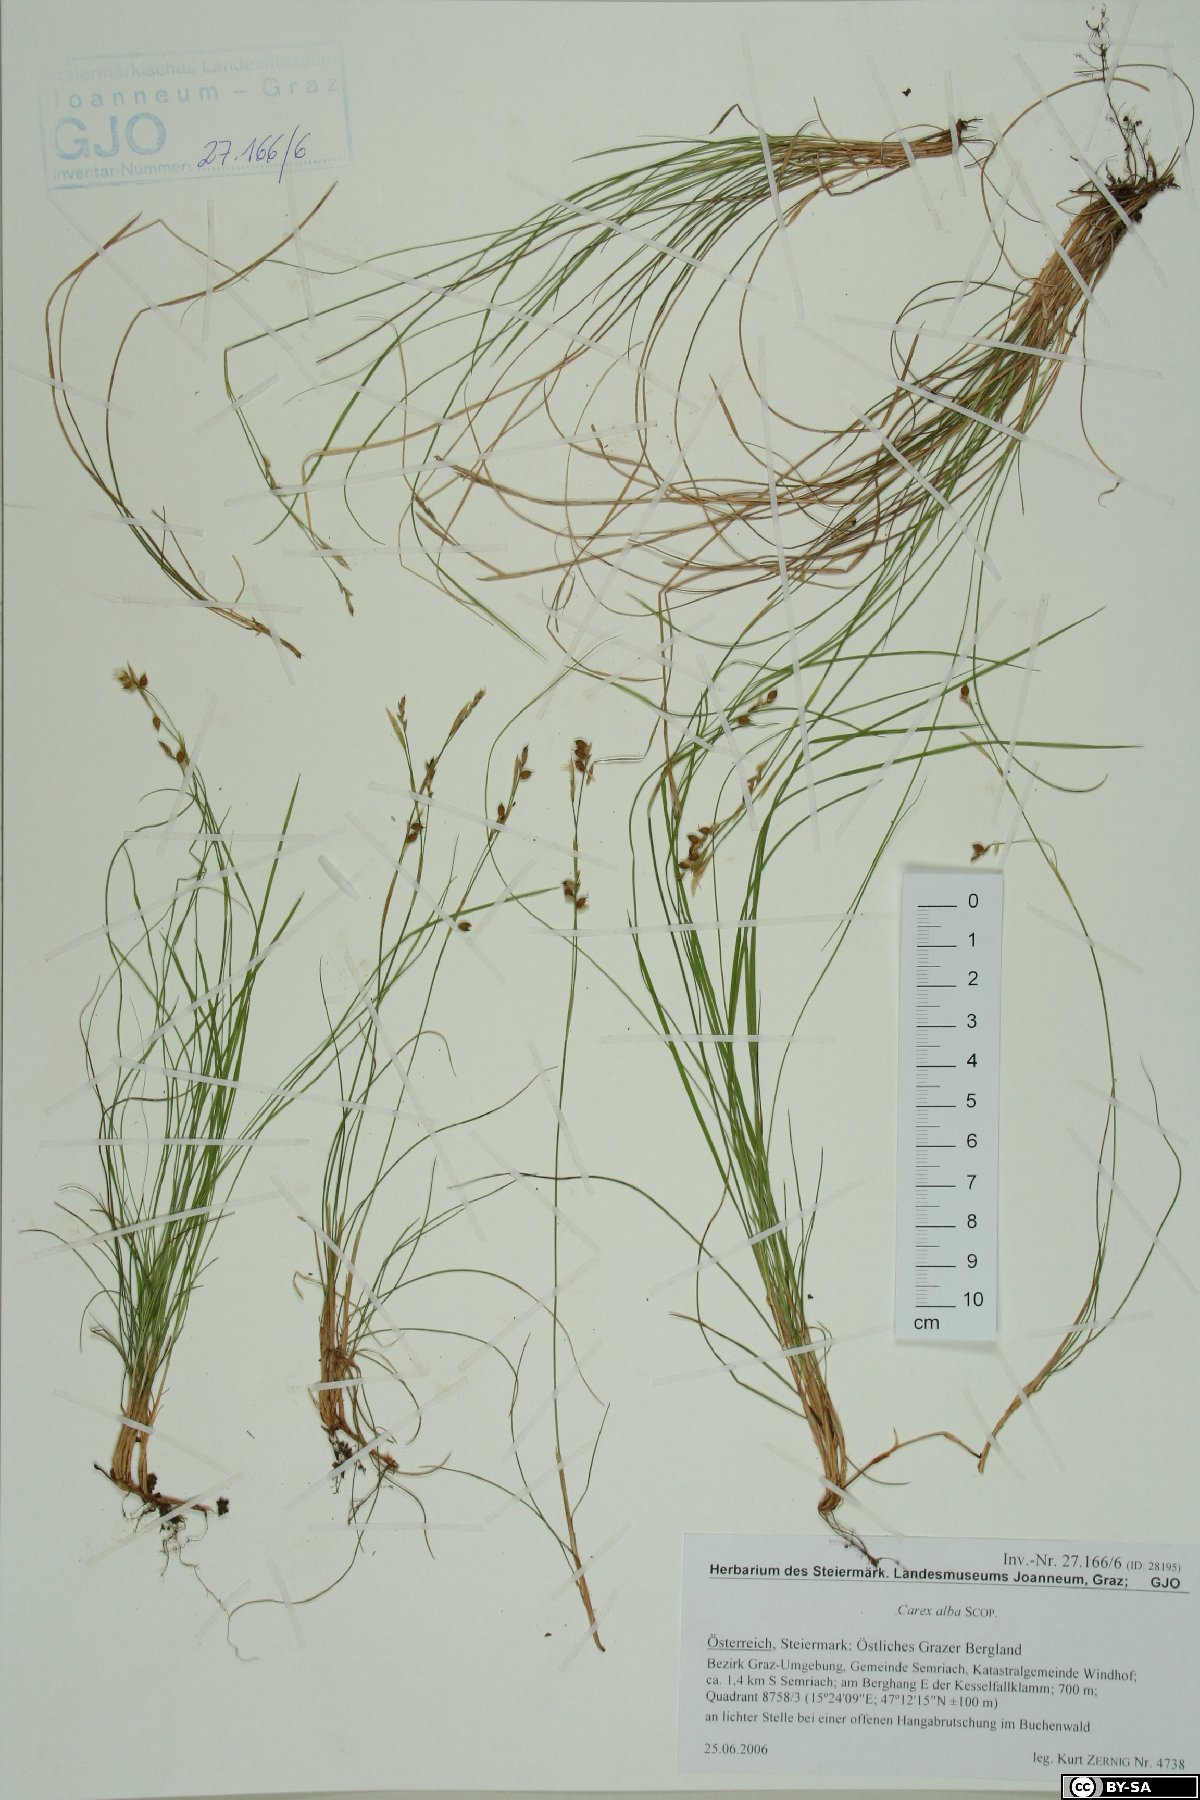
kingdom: Plantae
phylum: Tracheophyta
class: Liliopsida
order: Poales
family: Cyperaceae
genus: Carex
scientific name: Carex alba
